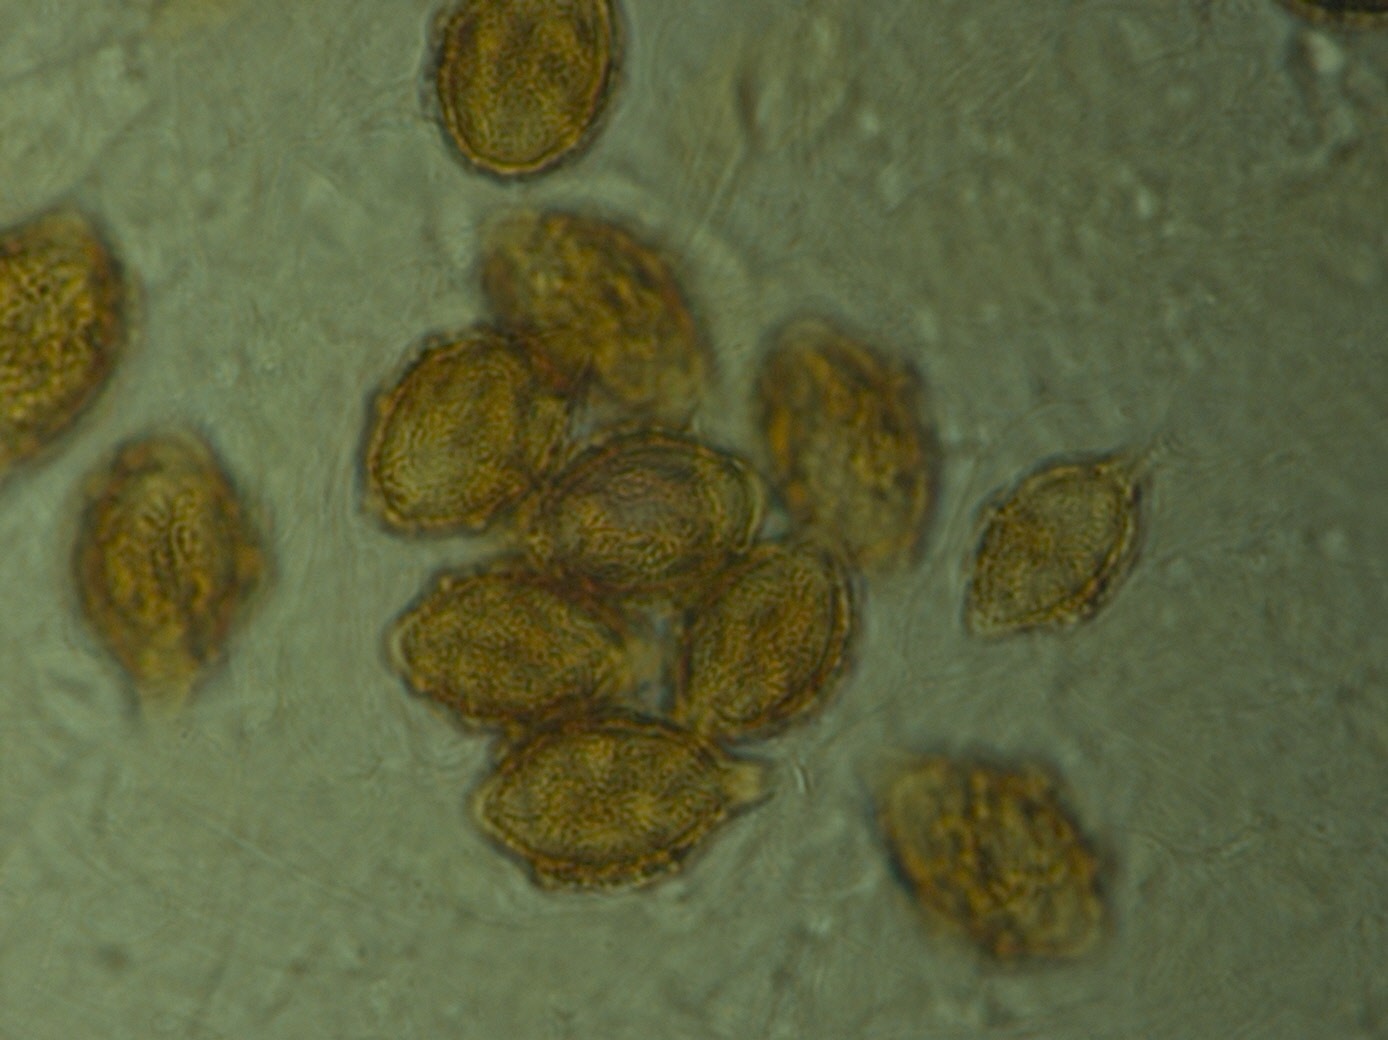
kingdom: Fungi
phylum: Basidiomycota
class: Agaricomycetes
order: Agaricales
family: Hymenogastraceae
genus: Hymenogaster
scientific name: Hymenogaster tener
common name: Thin nut truffle
